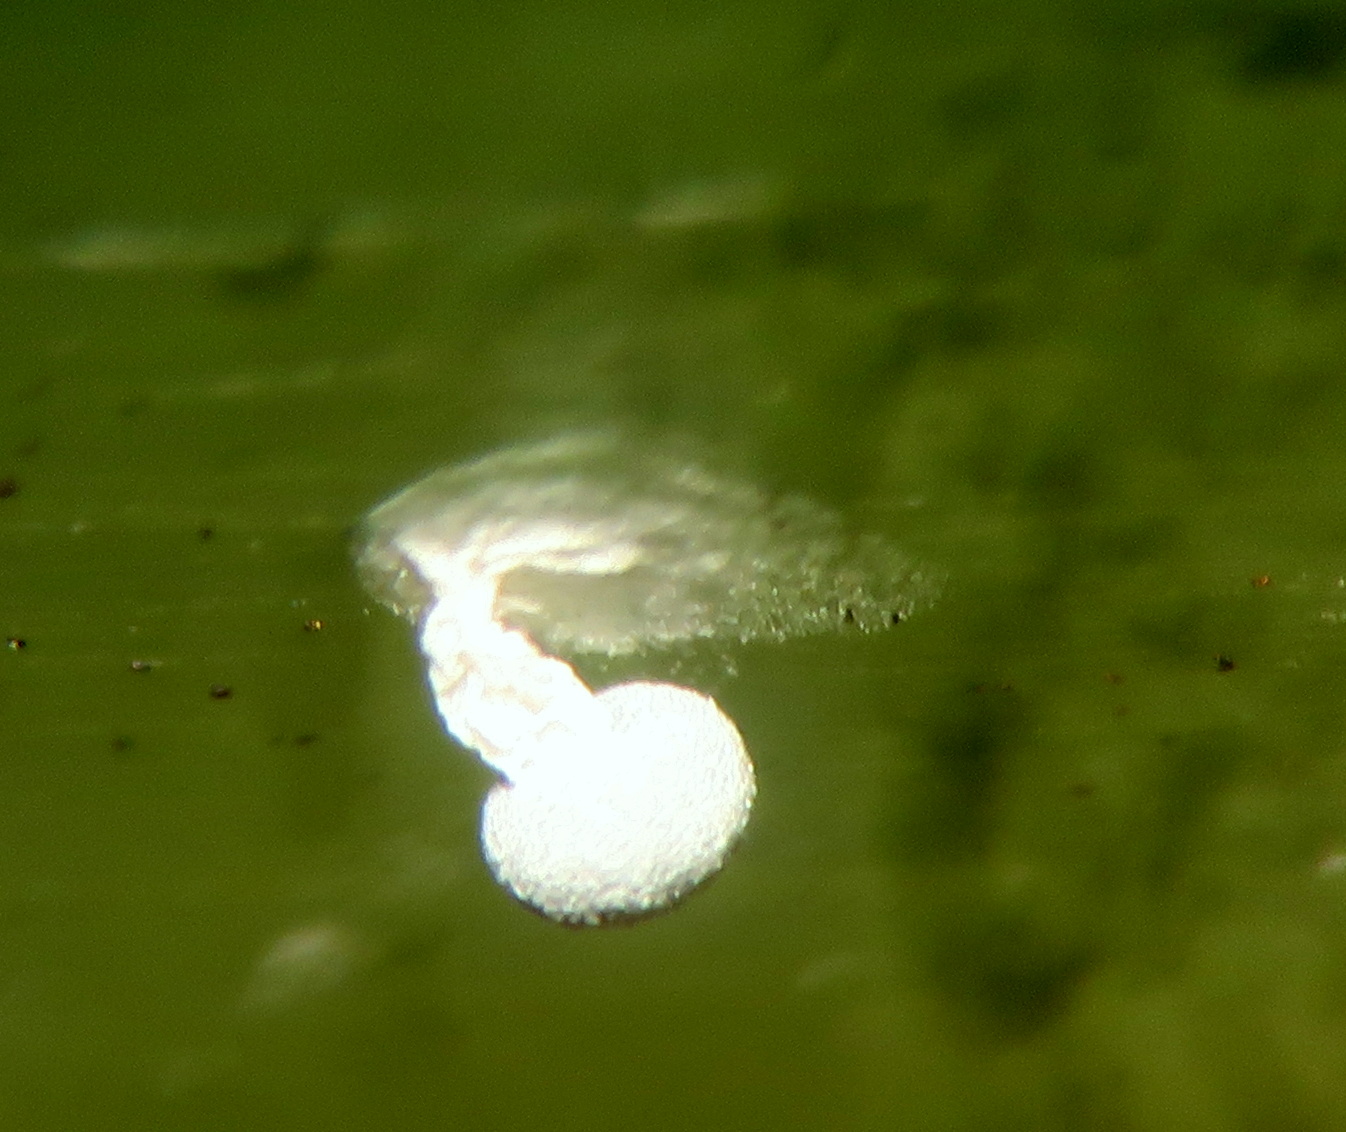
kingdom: Protozoa
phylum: Mycetozoa
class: Myxomycetes
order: Physarales
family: Didymiaceae
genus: Didymium
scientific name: Didymium squamulosum
